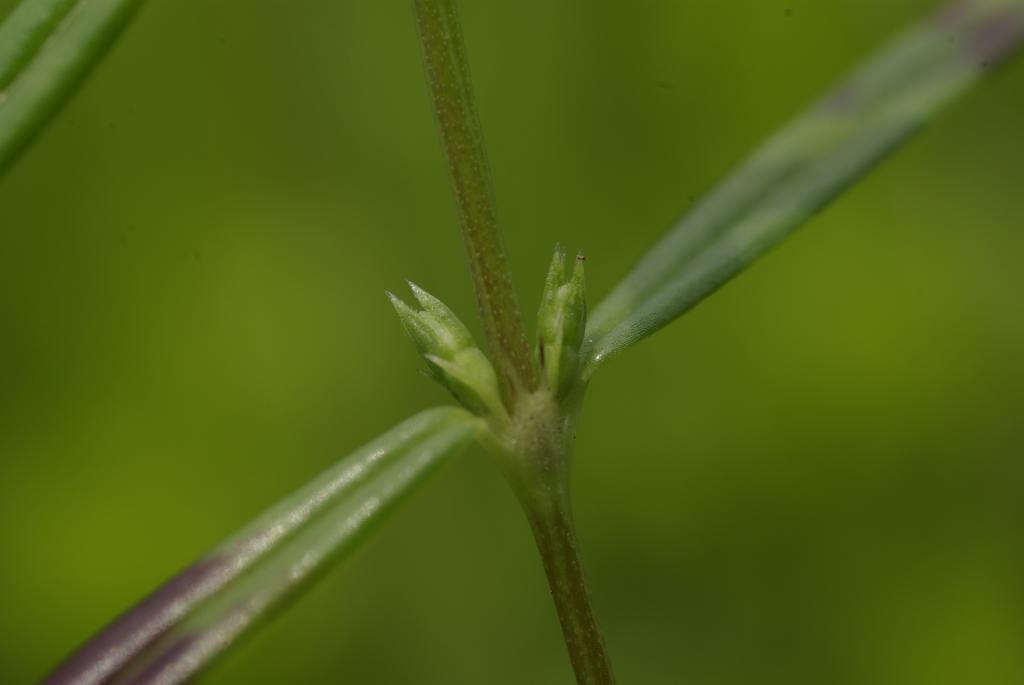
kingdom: Plantae
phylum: Tracheophyta
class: Magnoliopsida
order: Gentianales
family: Rubiaceae
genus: Scleromitrion
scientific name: Scleromitrion tenelliflorum
